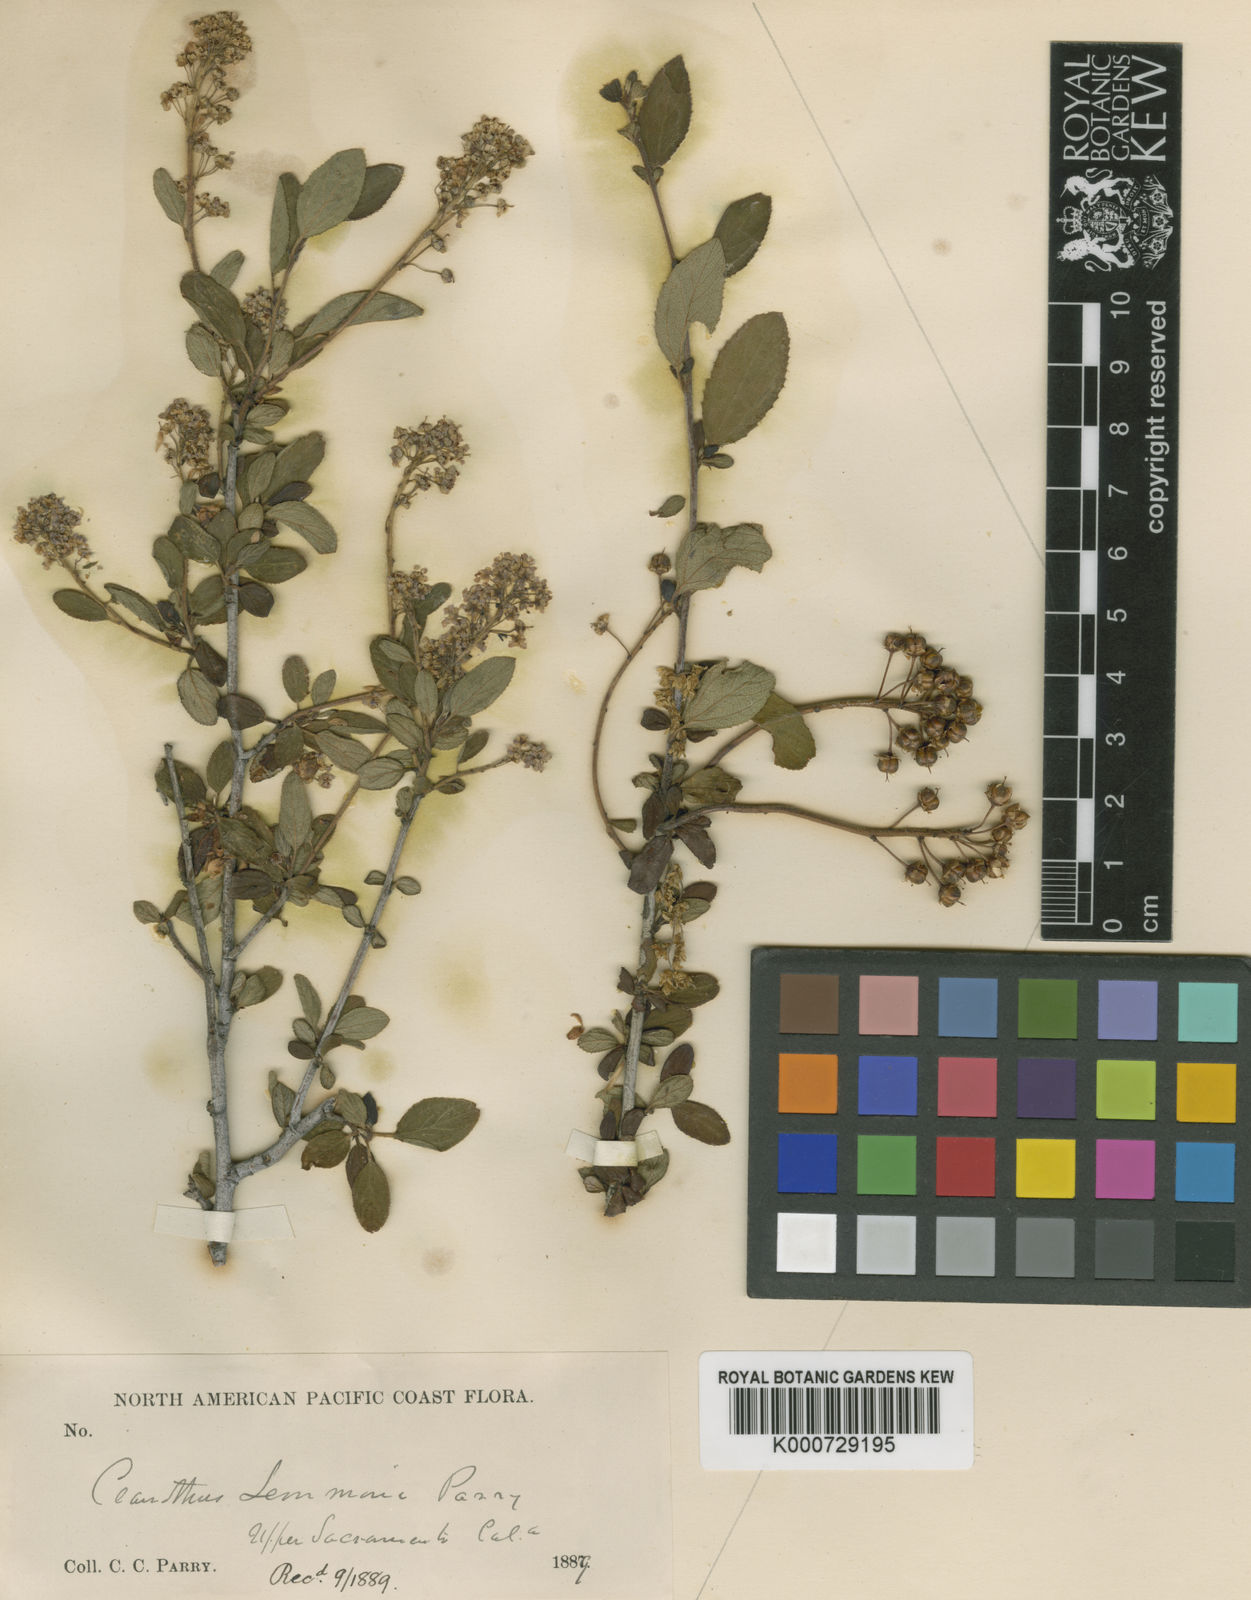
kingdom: Plantae
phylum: Tracheophyta
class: Magnoliopsida
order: Rosales
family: Rhamnaceae
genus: Ceanothus
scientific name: Ceanothus lemmonii
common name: Lemmon's ceanothus
